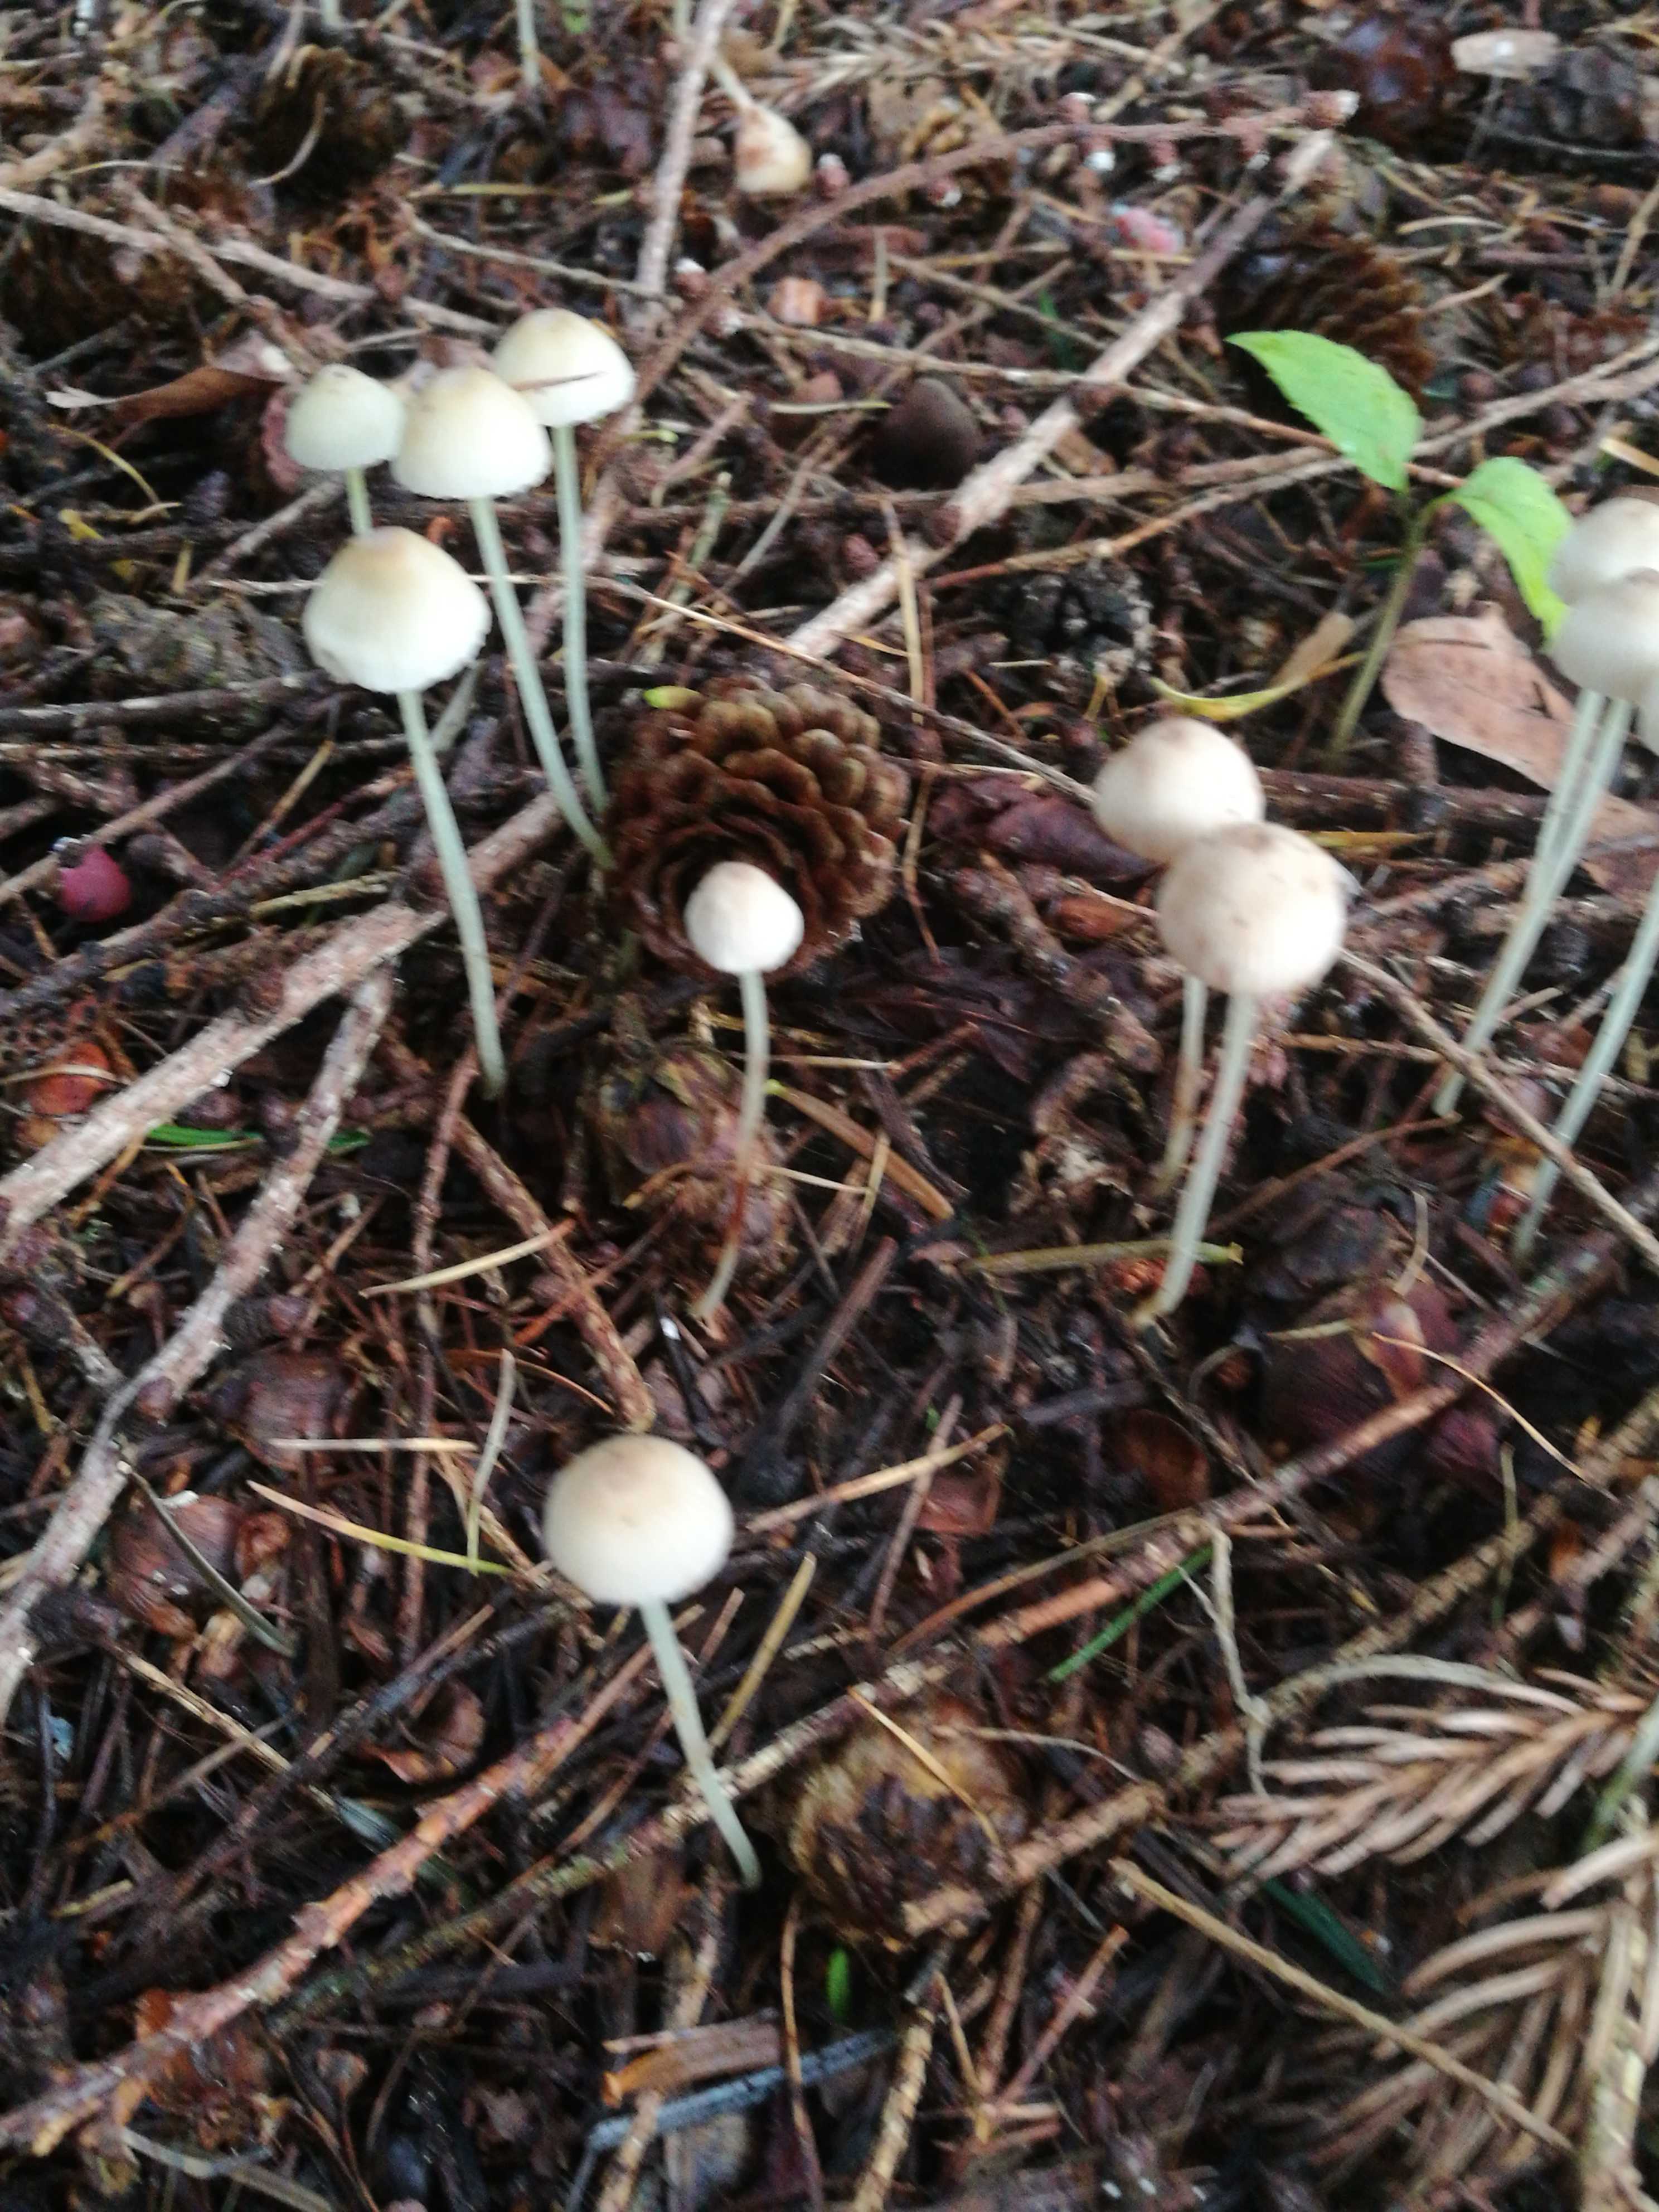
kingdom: Fungi
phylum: Basidiomycota
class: Agaricomycetes
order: Agaricales
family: Mycenaceae
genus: Mycena
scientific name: Mycena epipterygia
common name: gulstokket huesvamp
